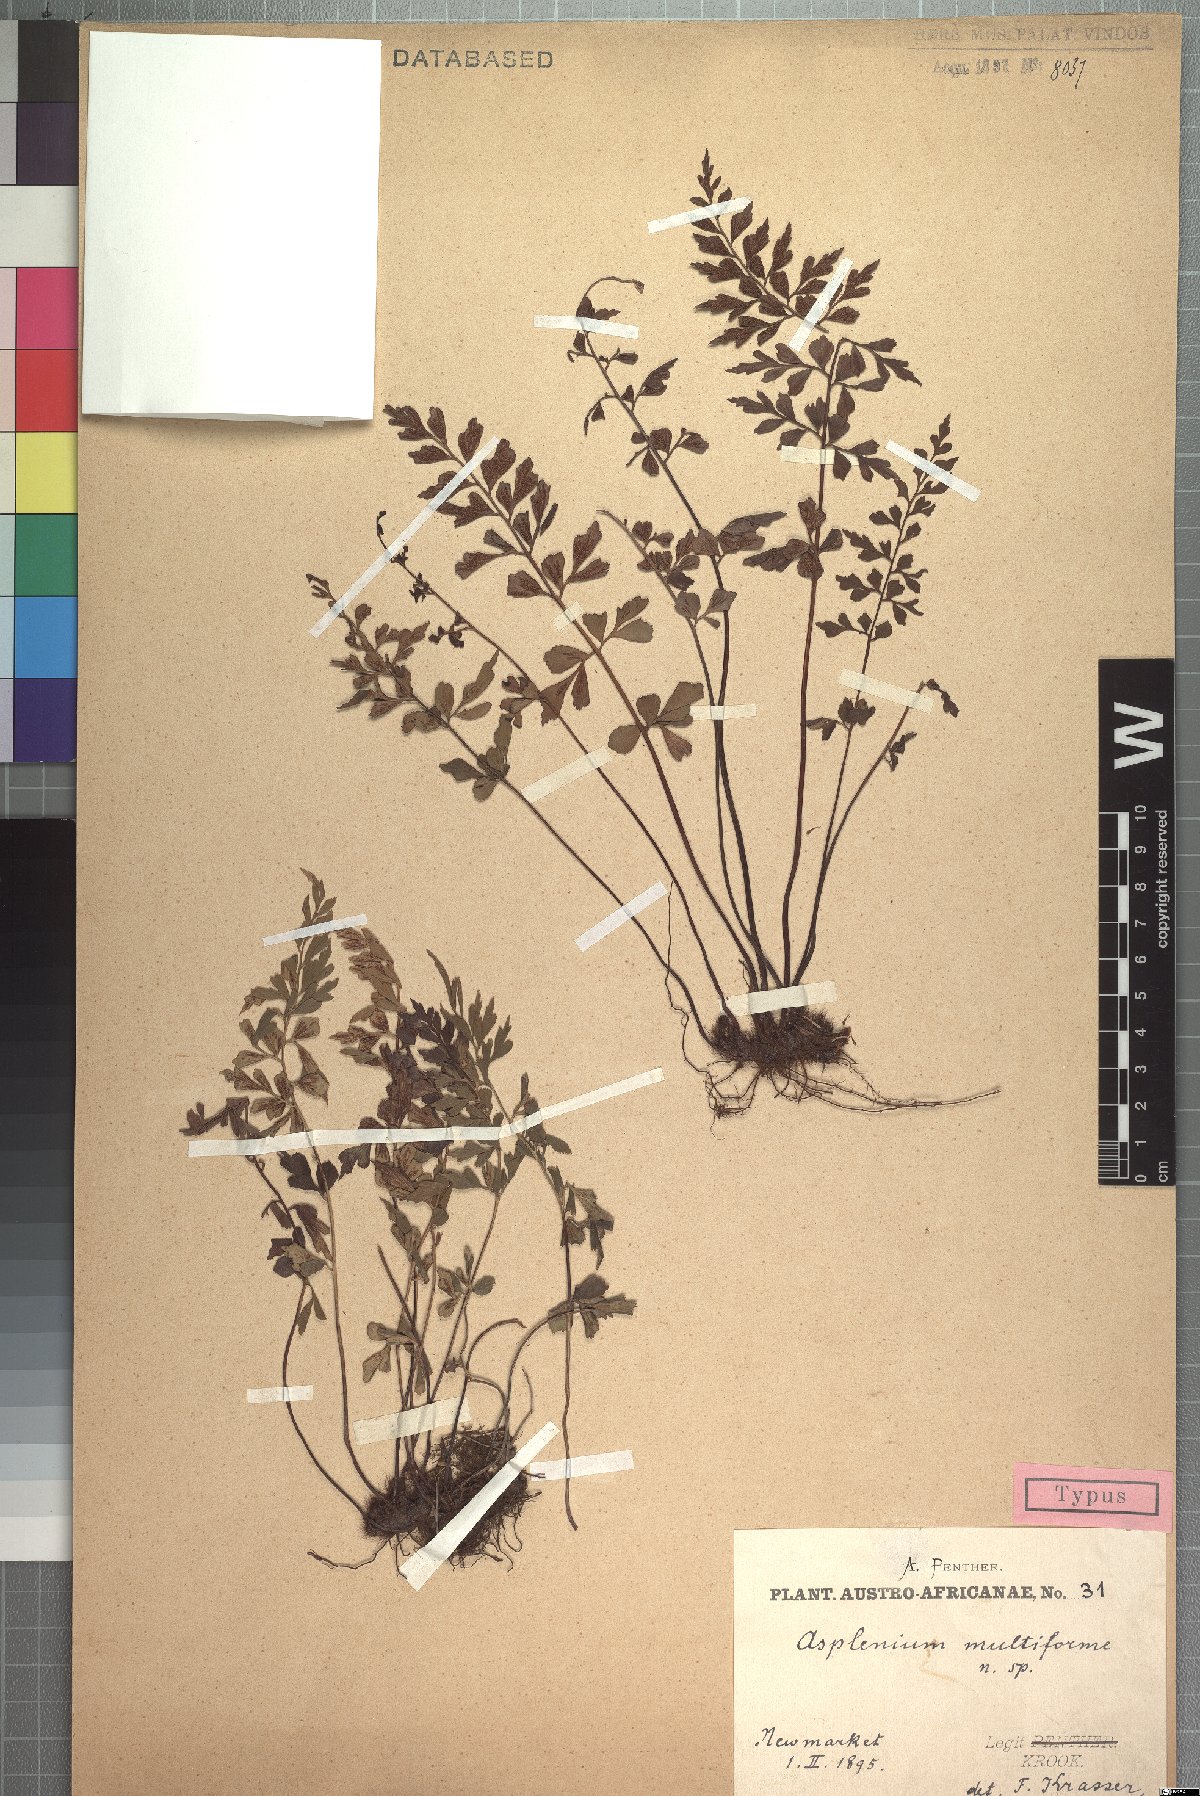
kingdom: Plantae
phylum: Tracheophyta
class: Polypodiopsida
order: Polypodiales
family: Aspleniaceae
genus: Asplenium
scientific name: Asplenium multiforme
